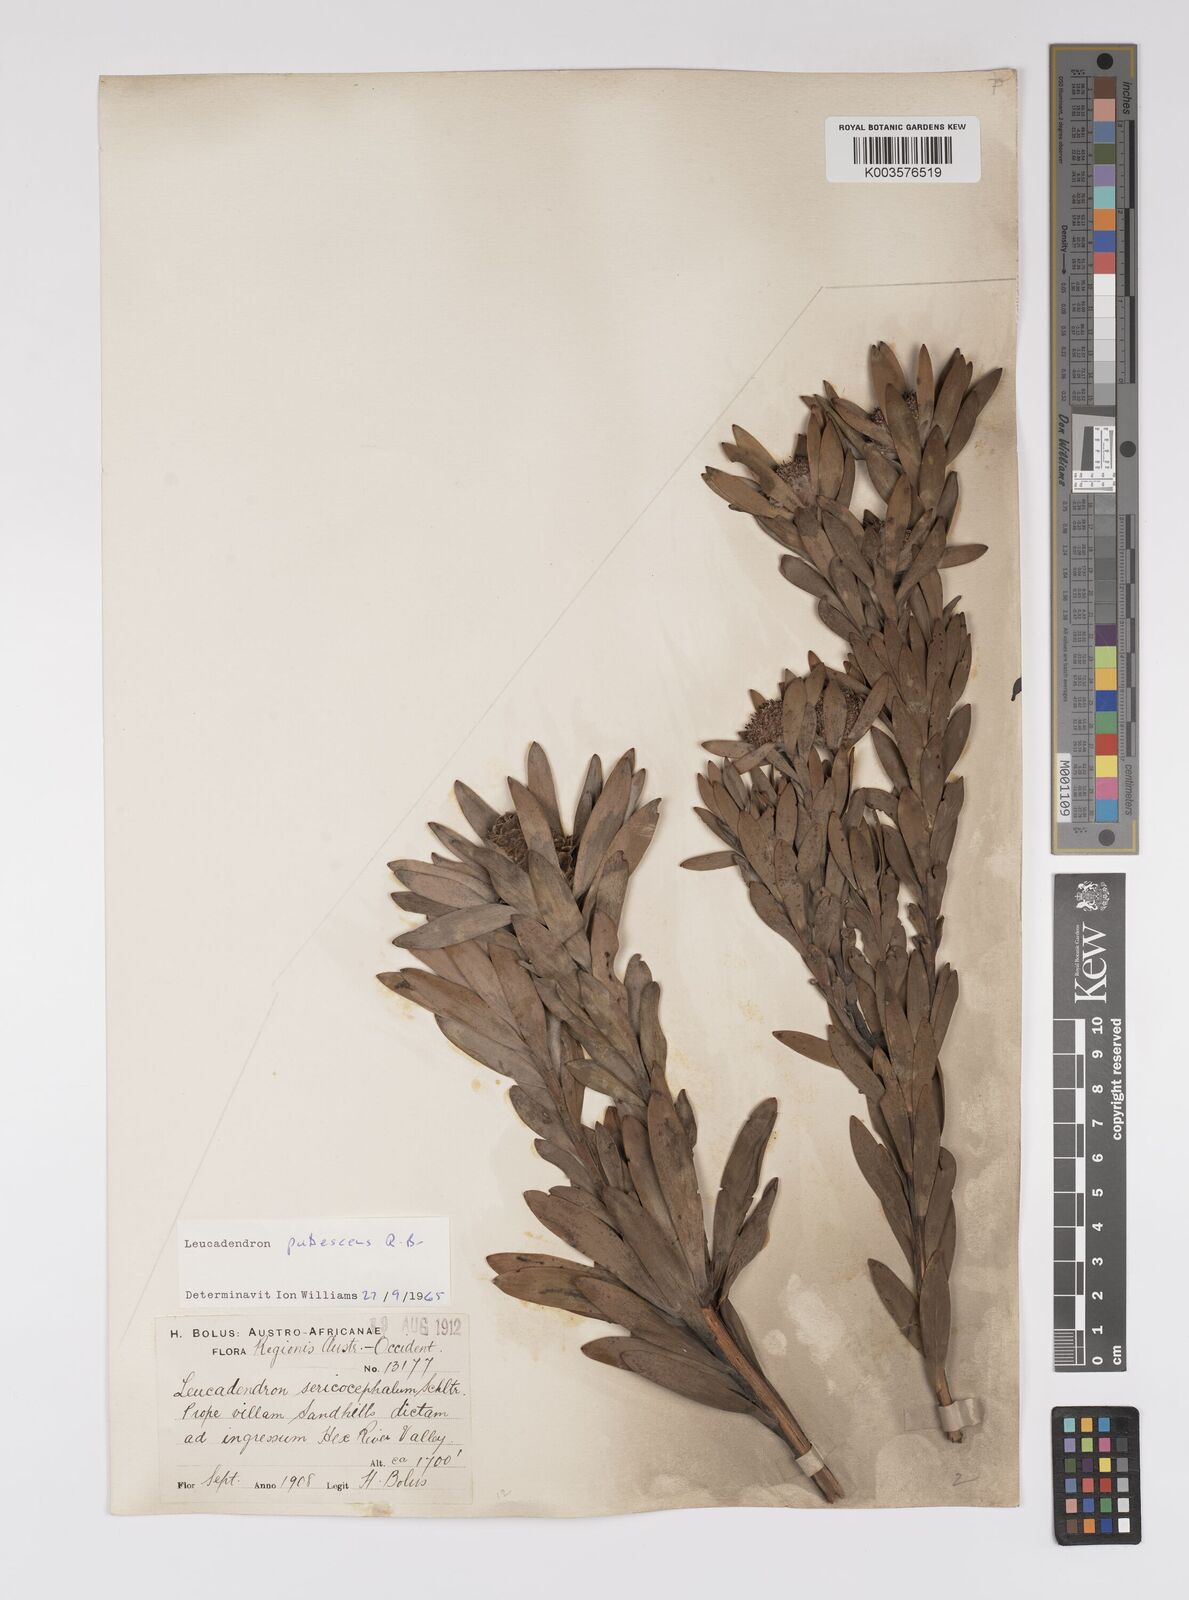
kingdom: Plantae
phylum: Tracheophyta
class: Magnoliopsida
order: Proteales
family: Proteaceae
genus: Leucadendron
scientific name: Leucadendron pubescens
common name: Grey conebush
